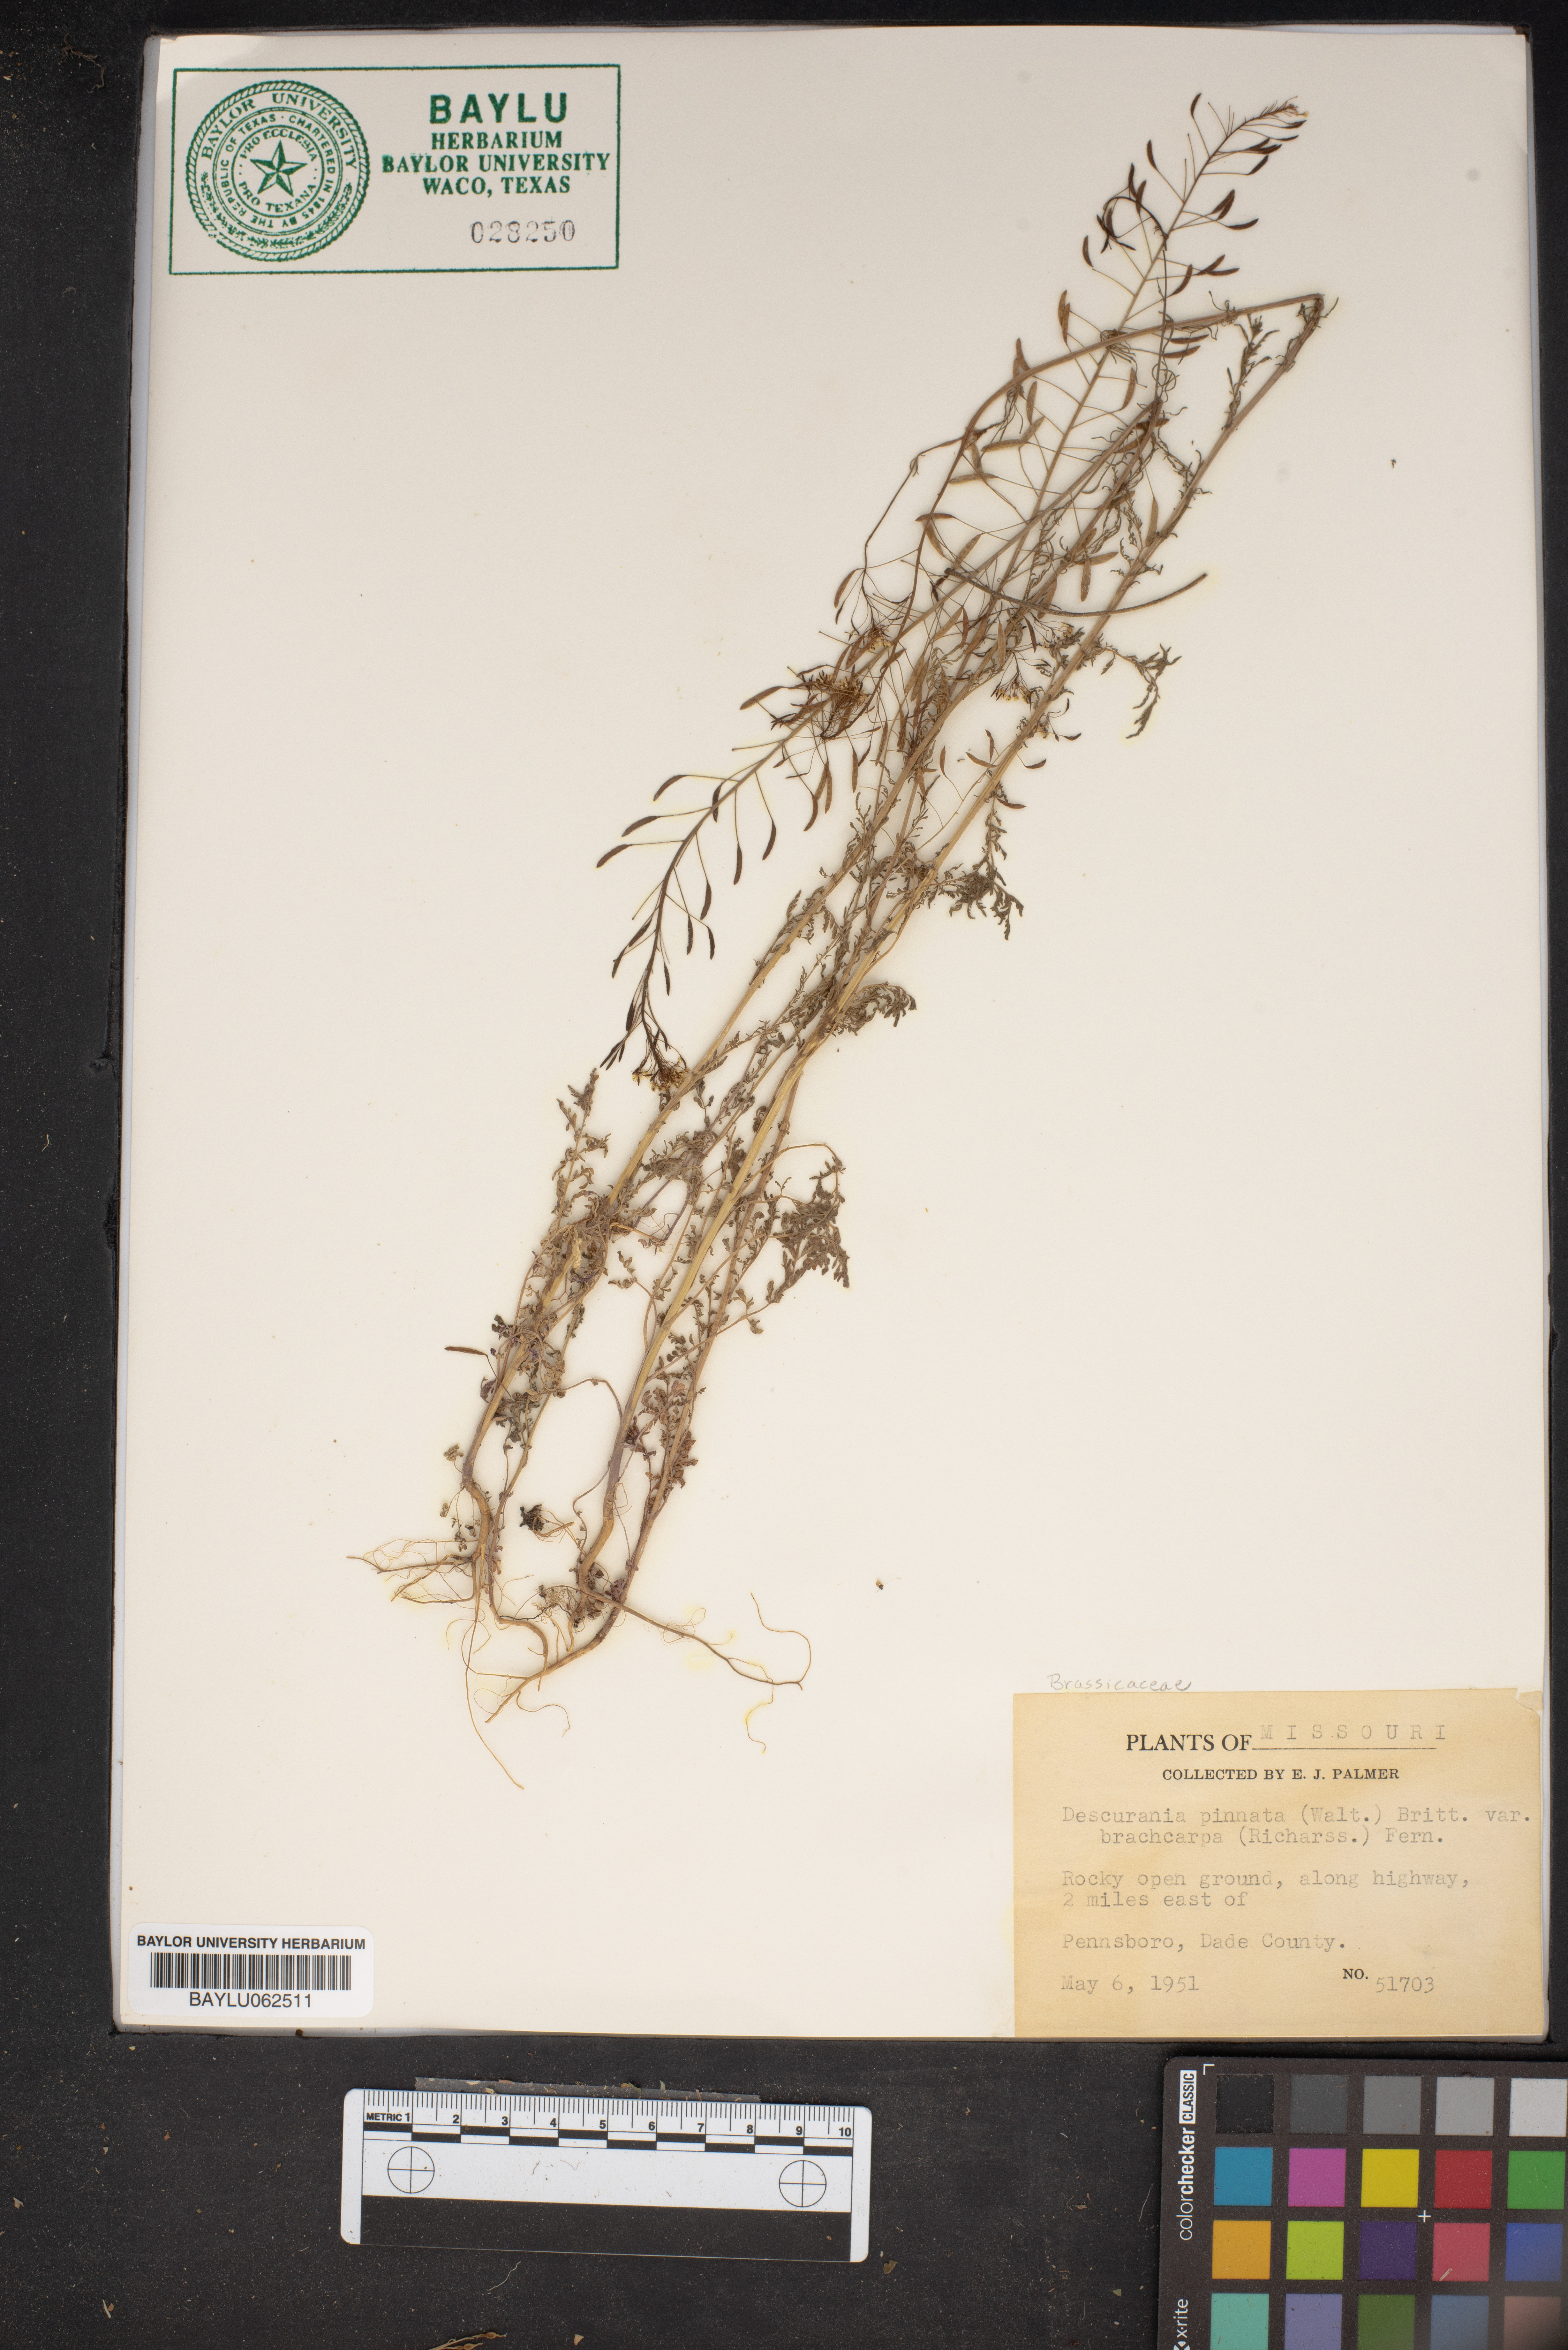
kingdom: Plantae
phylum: Tracheophyta
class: Magnoliopsida
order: Brassicales
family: Brassicaceae
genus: Descurainia
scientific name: Descurainia pinnata
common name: Western tansy mustard
